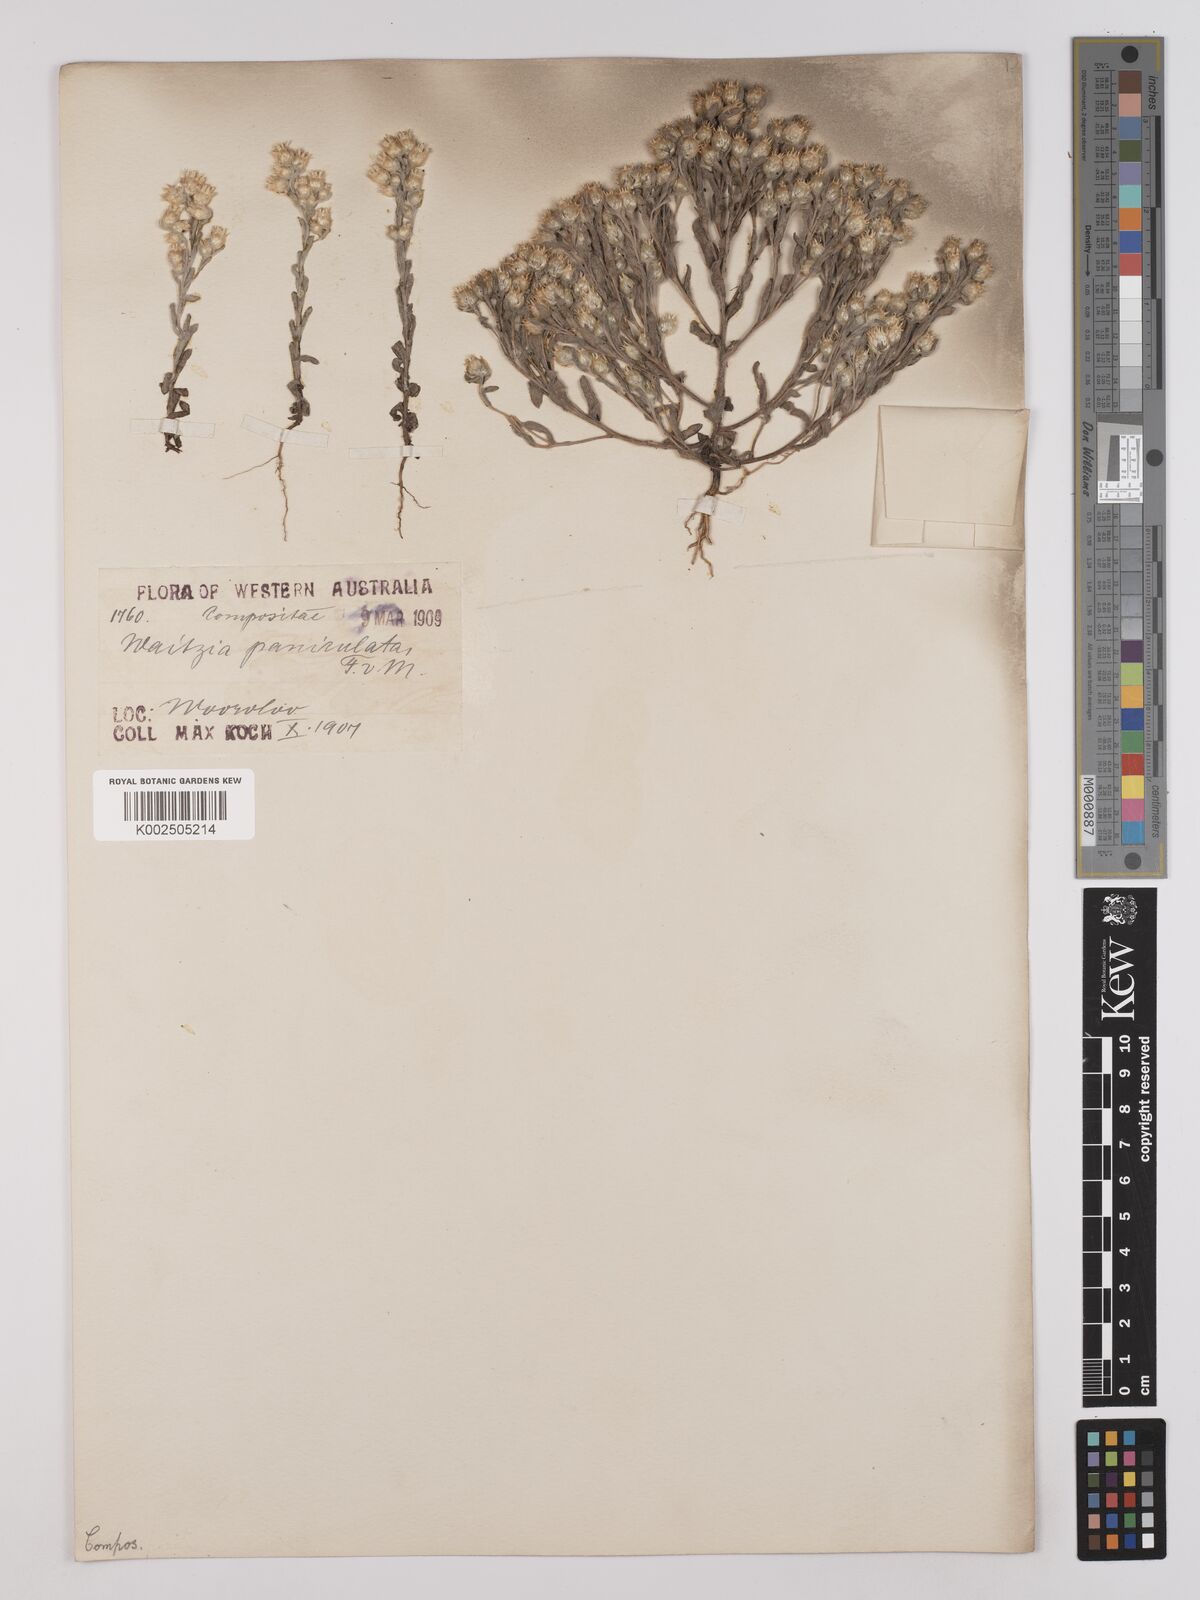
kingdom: Plantae
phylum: Tracheophyta
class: Magnoliopsida
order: Asterales
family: Asteraceae
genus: Pterochaeta
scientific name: Pterochaeta paniculata
